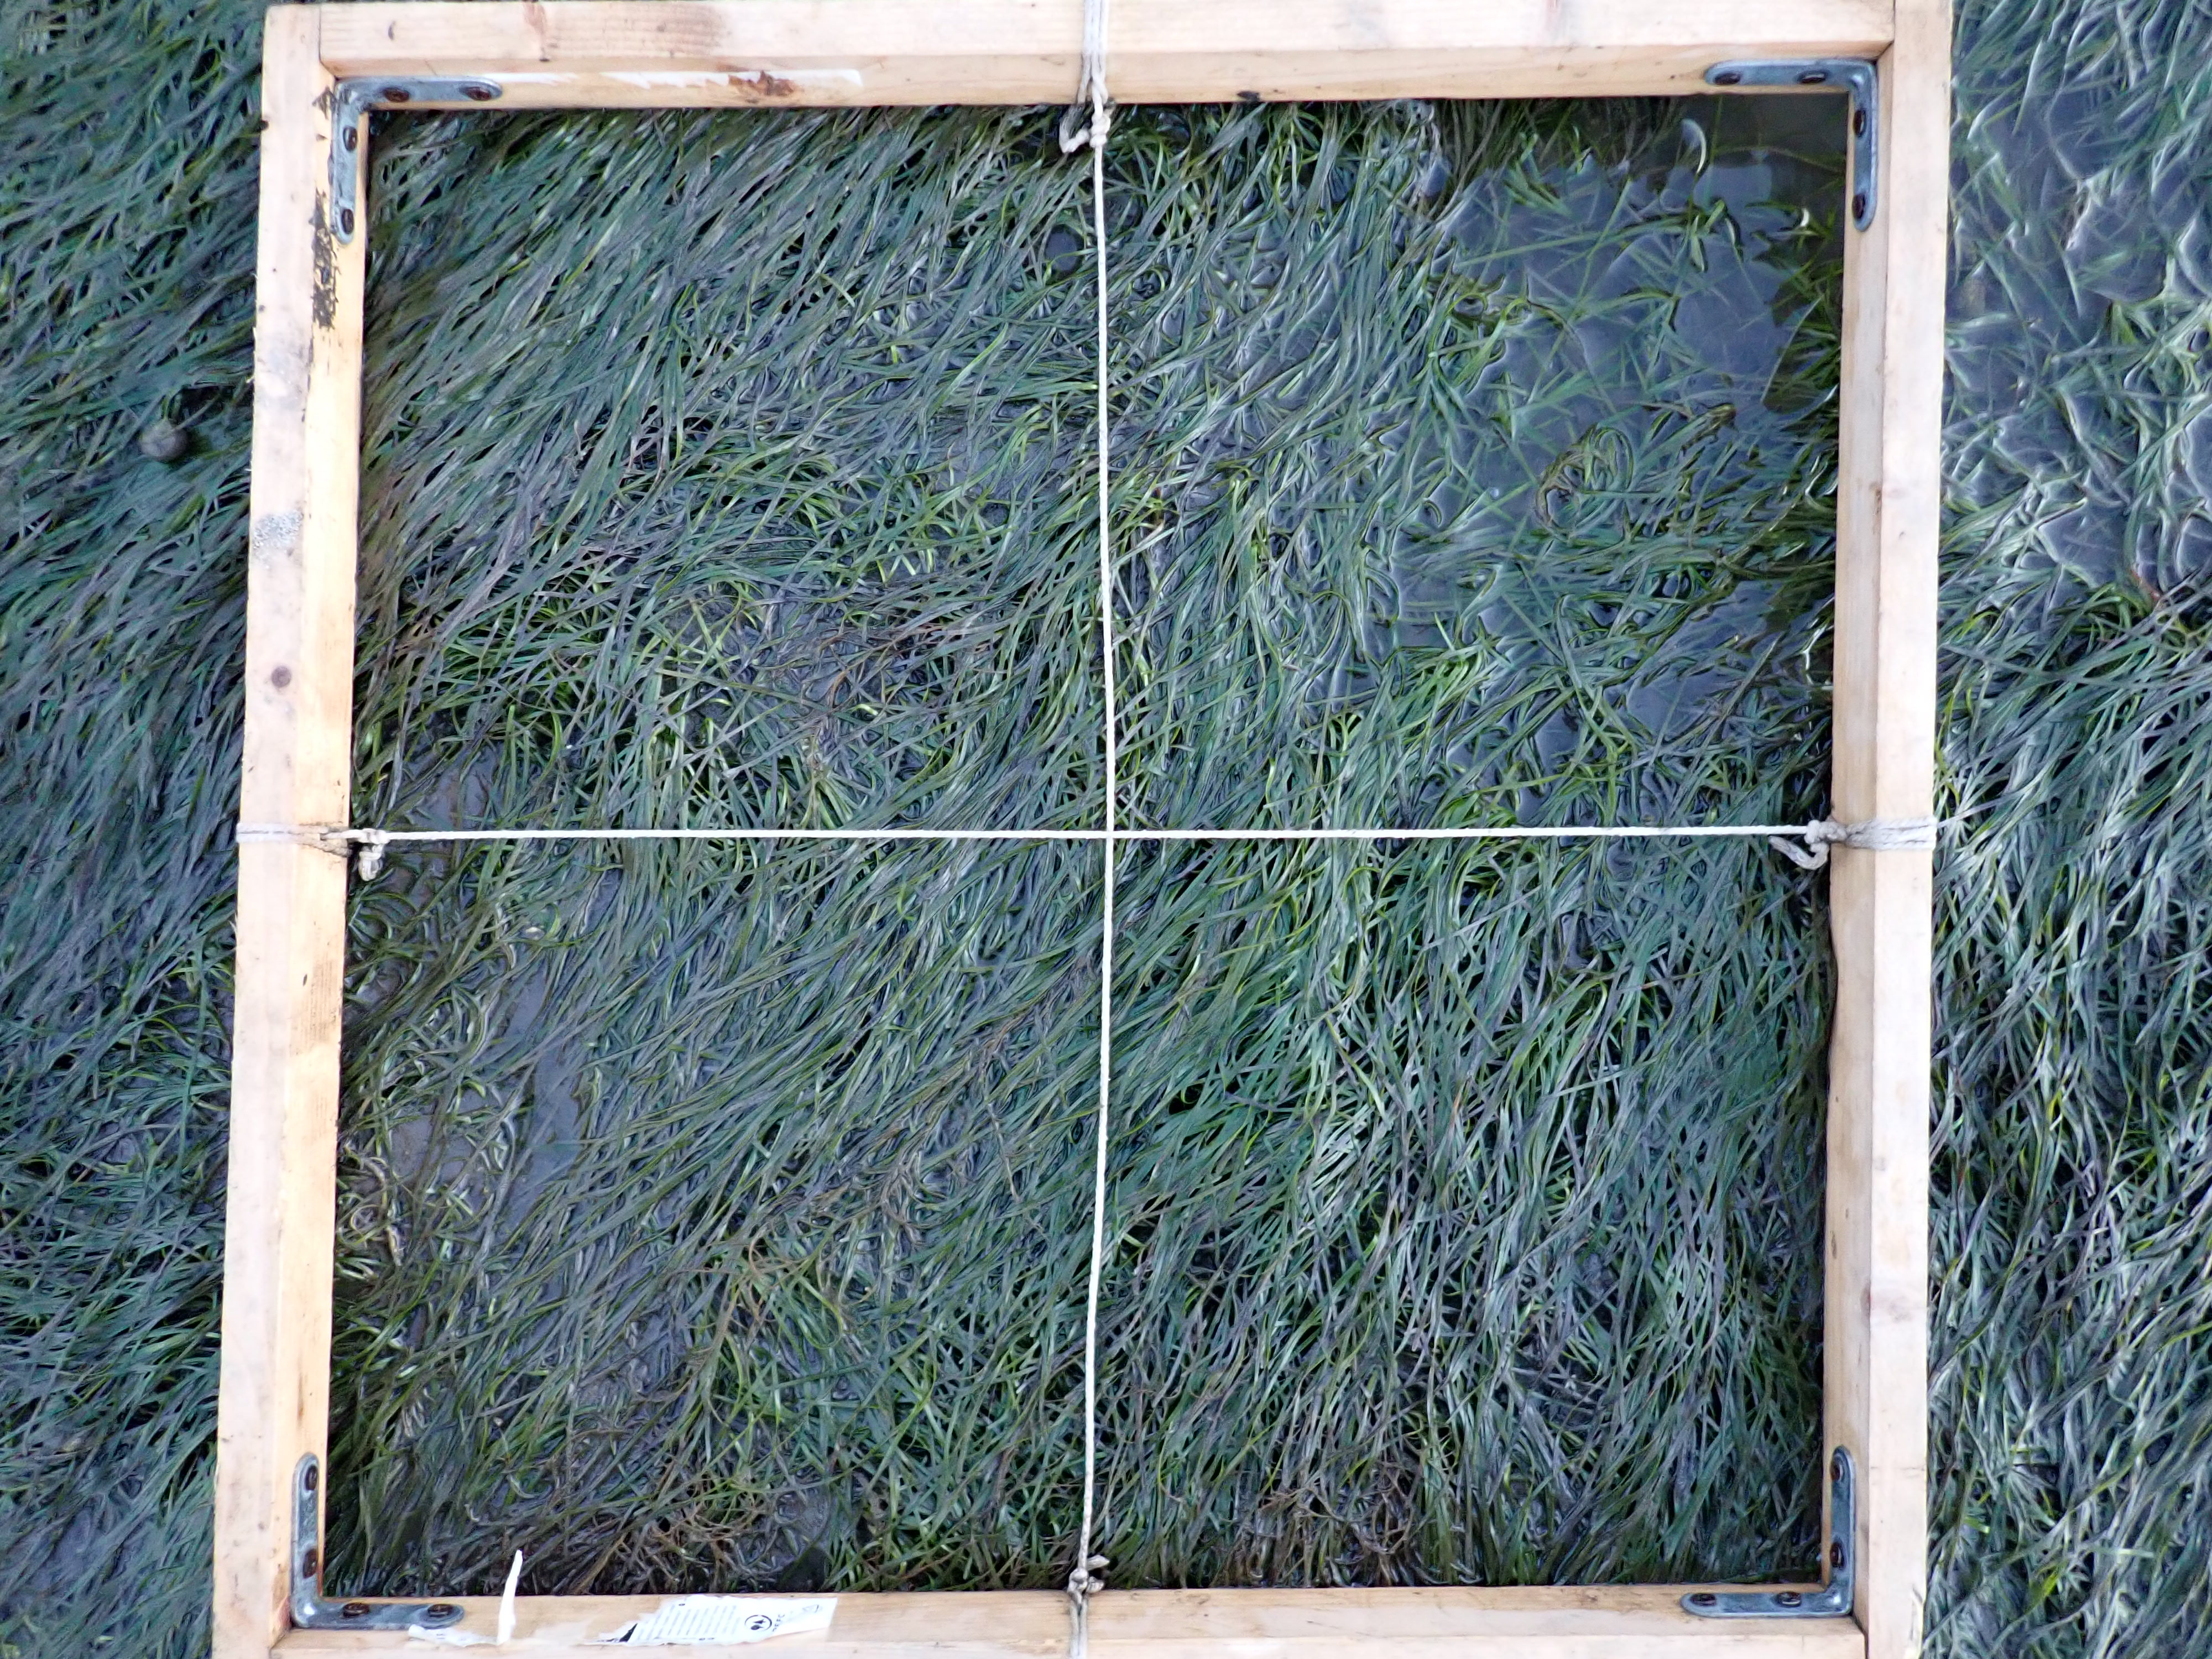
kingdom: Plantae
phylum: Tracheophyta
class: Liliopsida
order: Alismatales
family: Zosteraceae
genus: Zostera
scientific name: Zostera noltii
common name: Dwarf eelgrass
